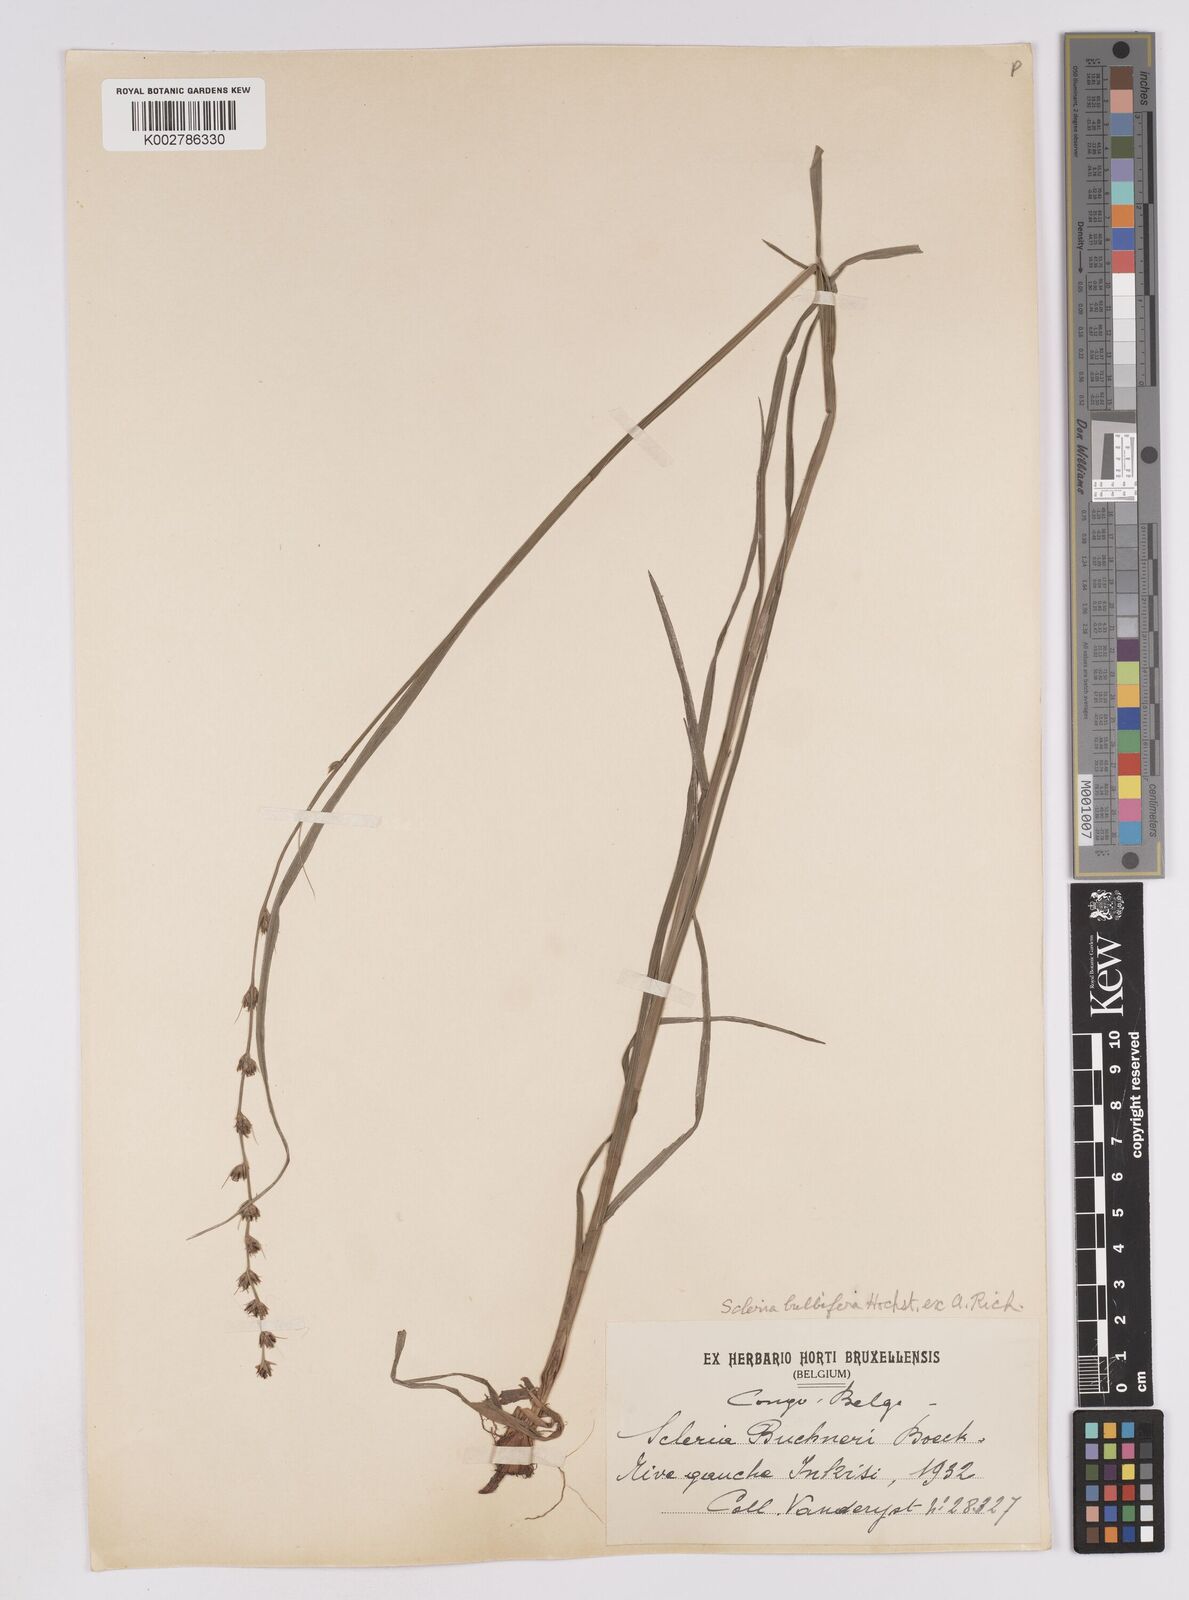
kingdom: Plantae
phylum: Tracheophyta
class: Liliopsida
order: Poales
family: Cyperaceae
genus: Scleria
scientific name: Scleria bulbifera
